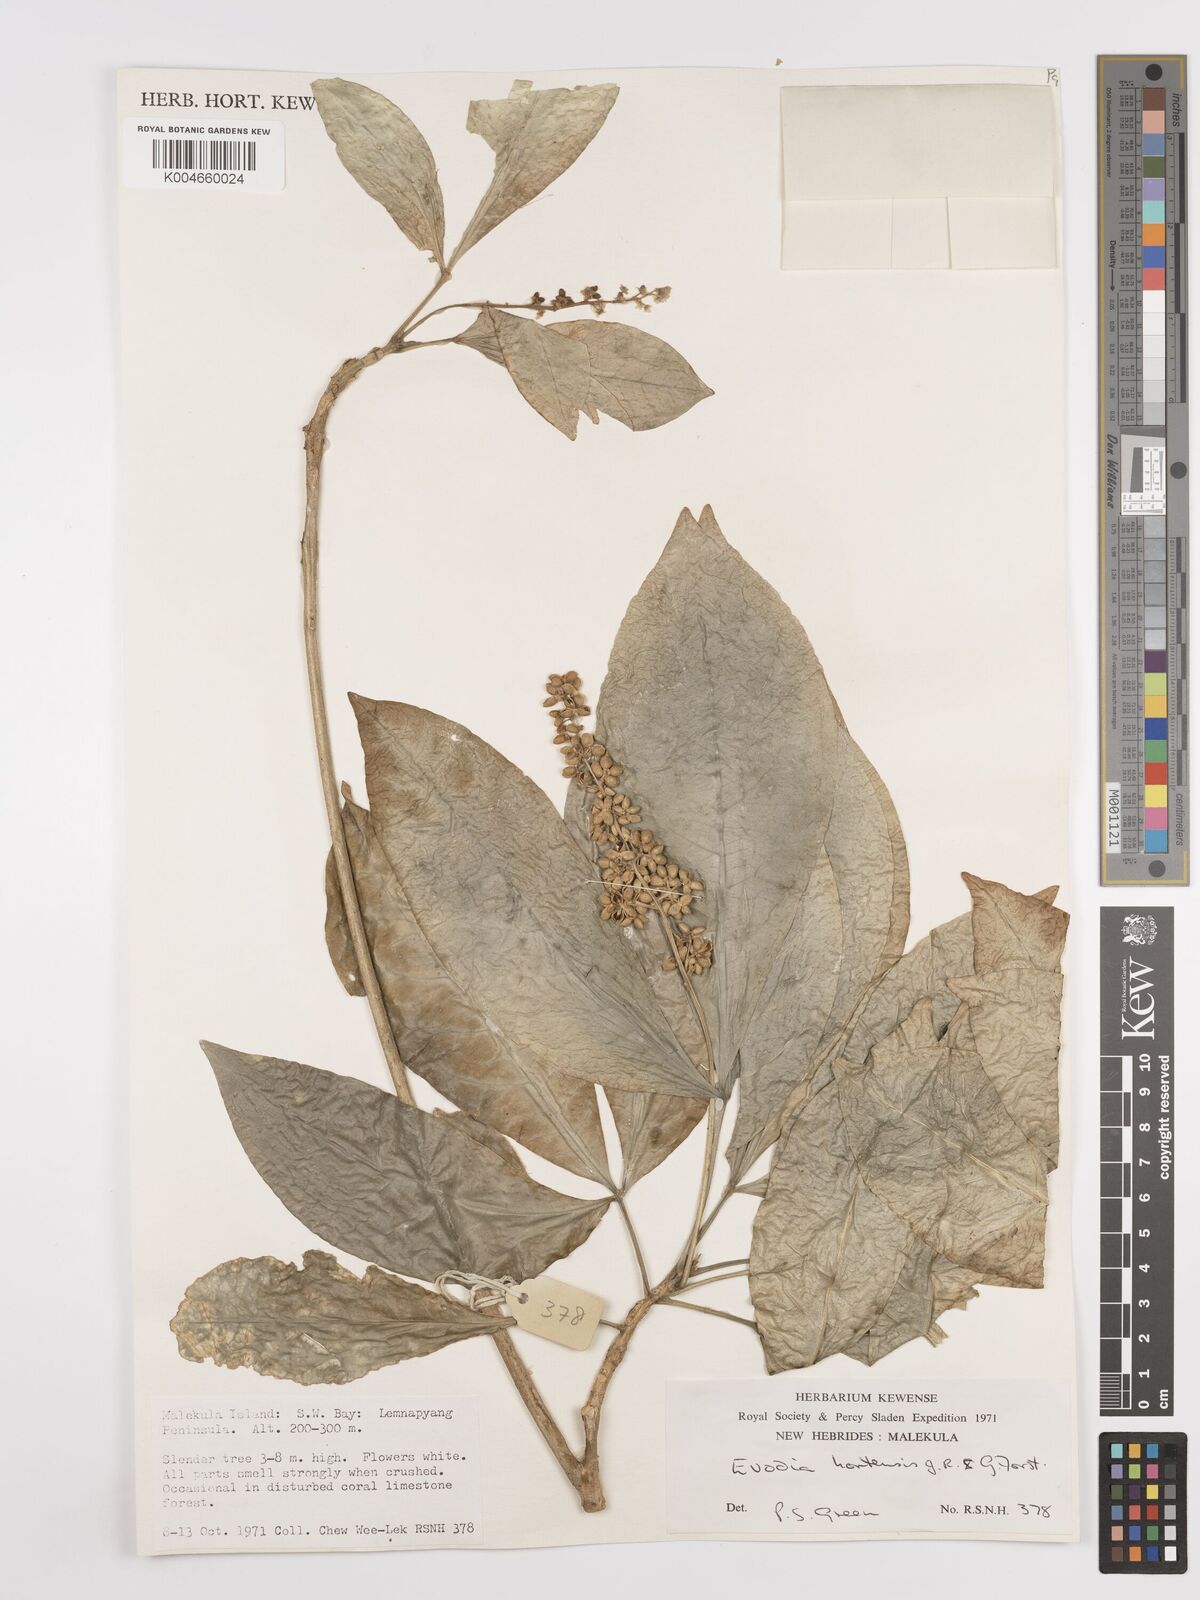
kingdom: Plantae
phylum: Tracheophyta
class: Magnoliopsida
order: Sapindales
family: Rutaceae
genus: Euodia
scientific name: Euodia hortensis
